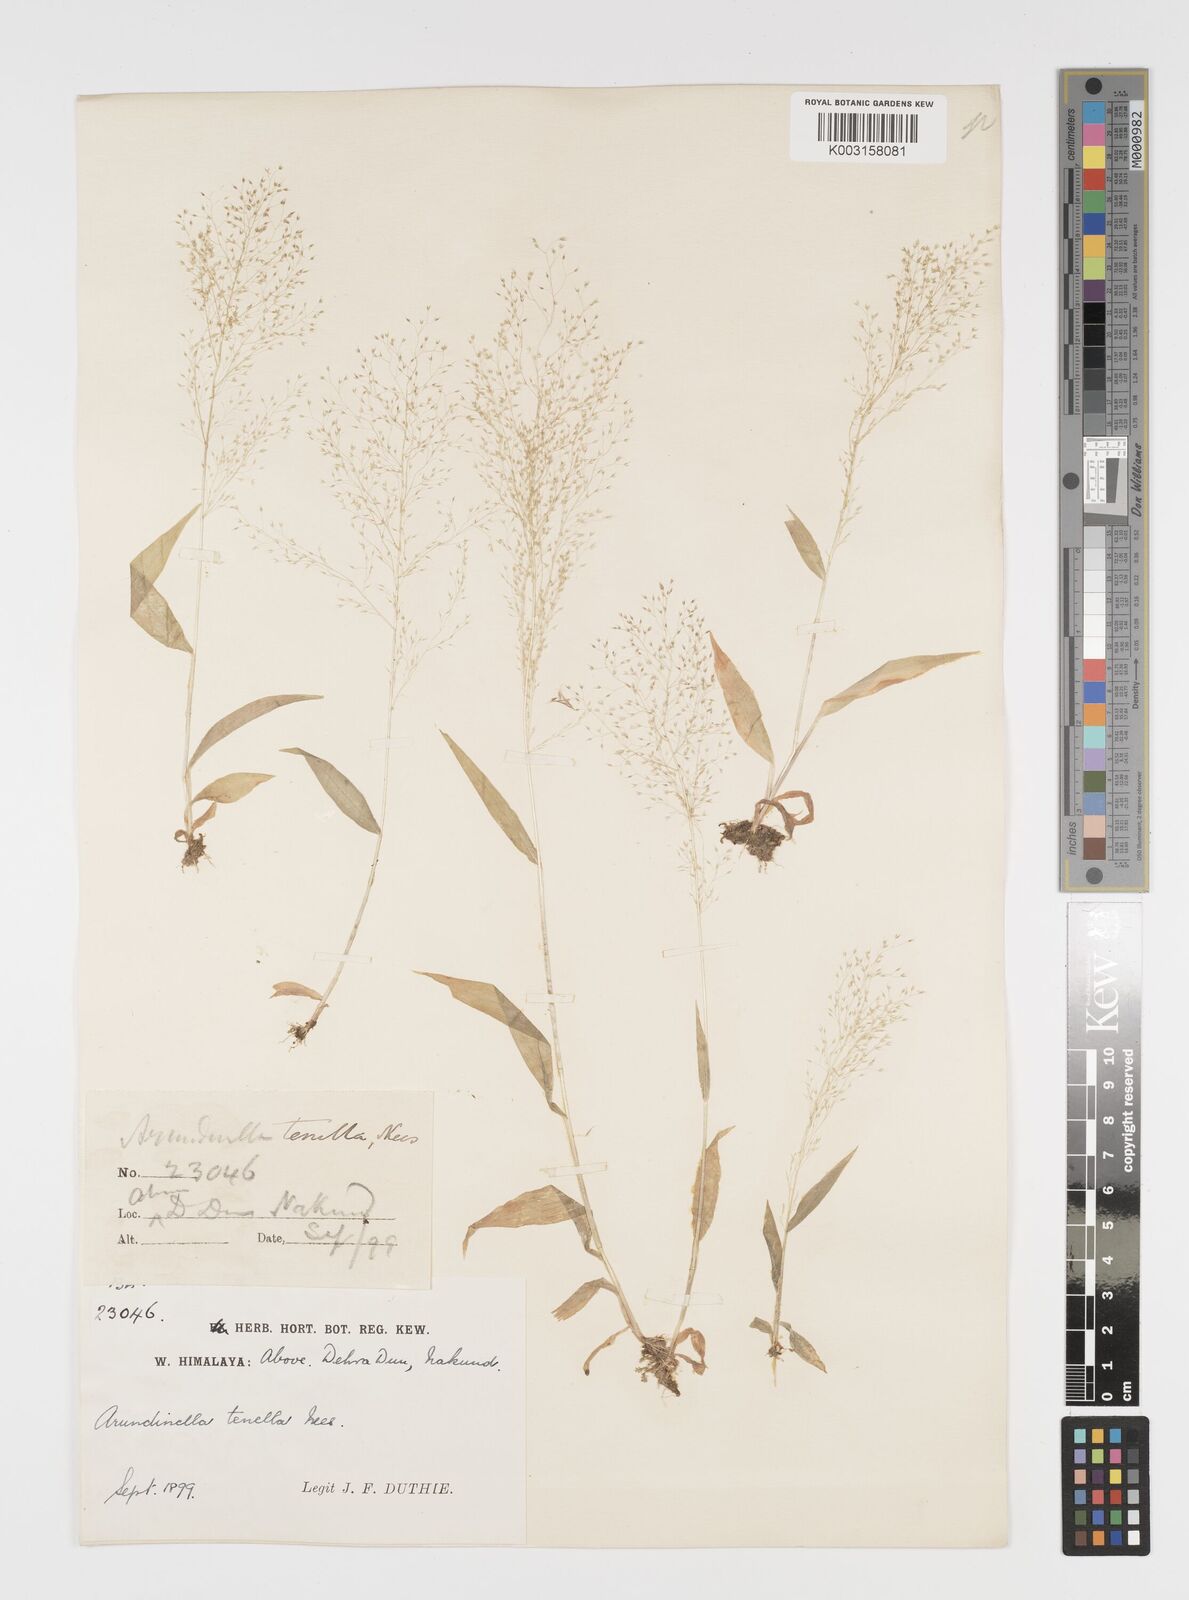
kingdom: Plantae
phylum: Tracheophyta
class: Liliopsida
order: Poales
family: Poaceae
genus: Arundinella
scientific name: Arundinella pumila
